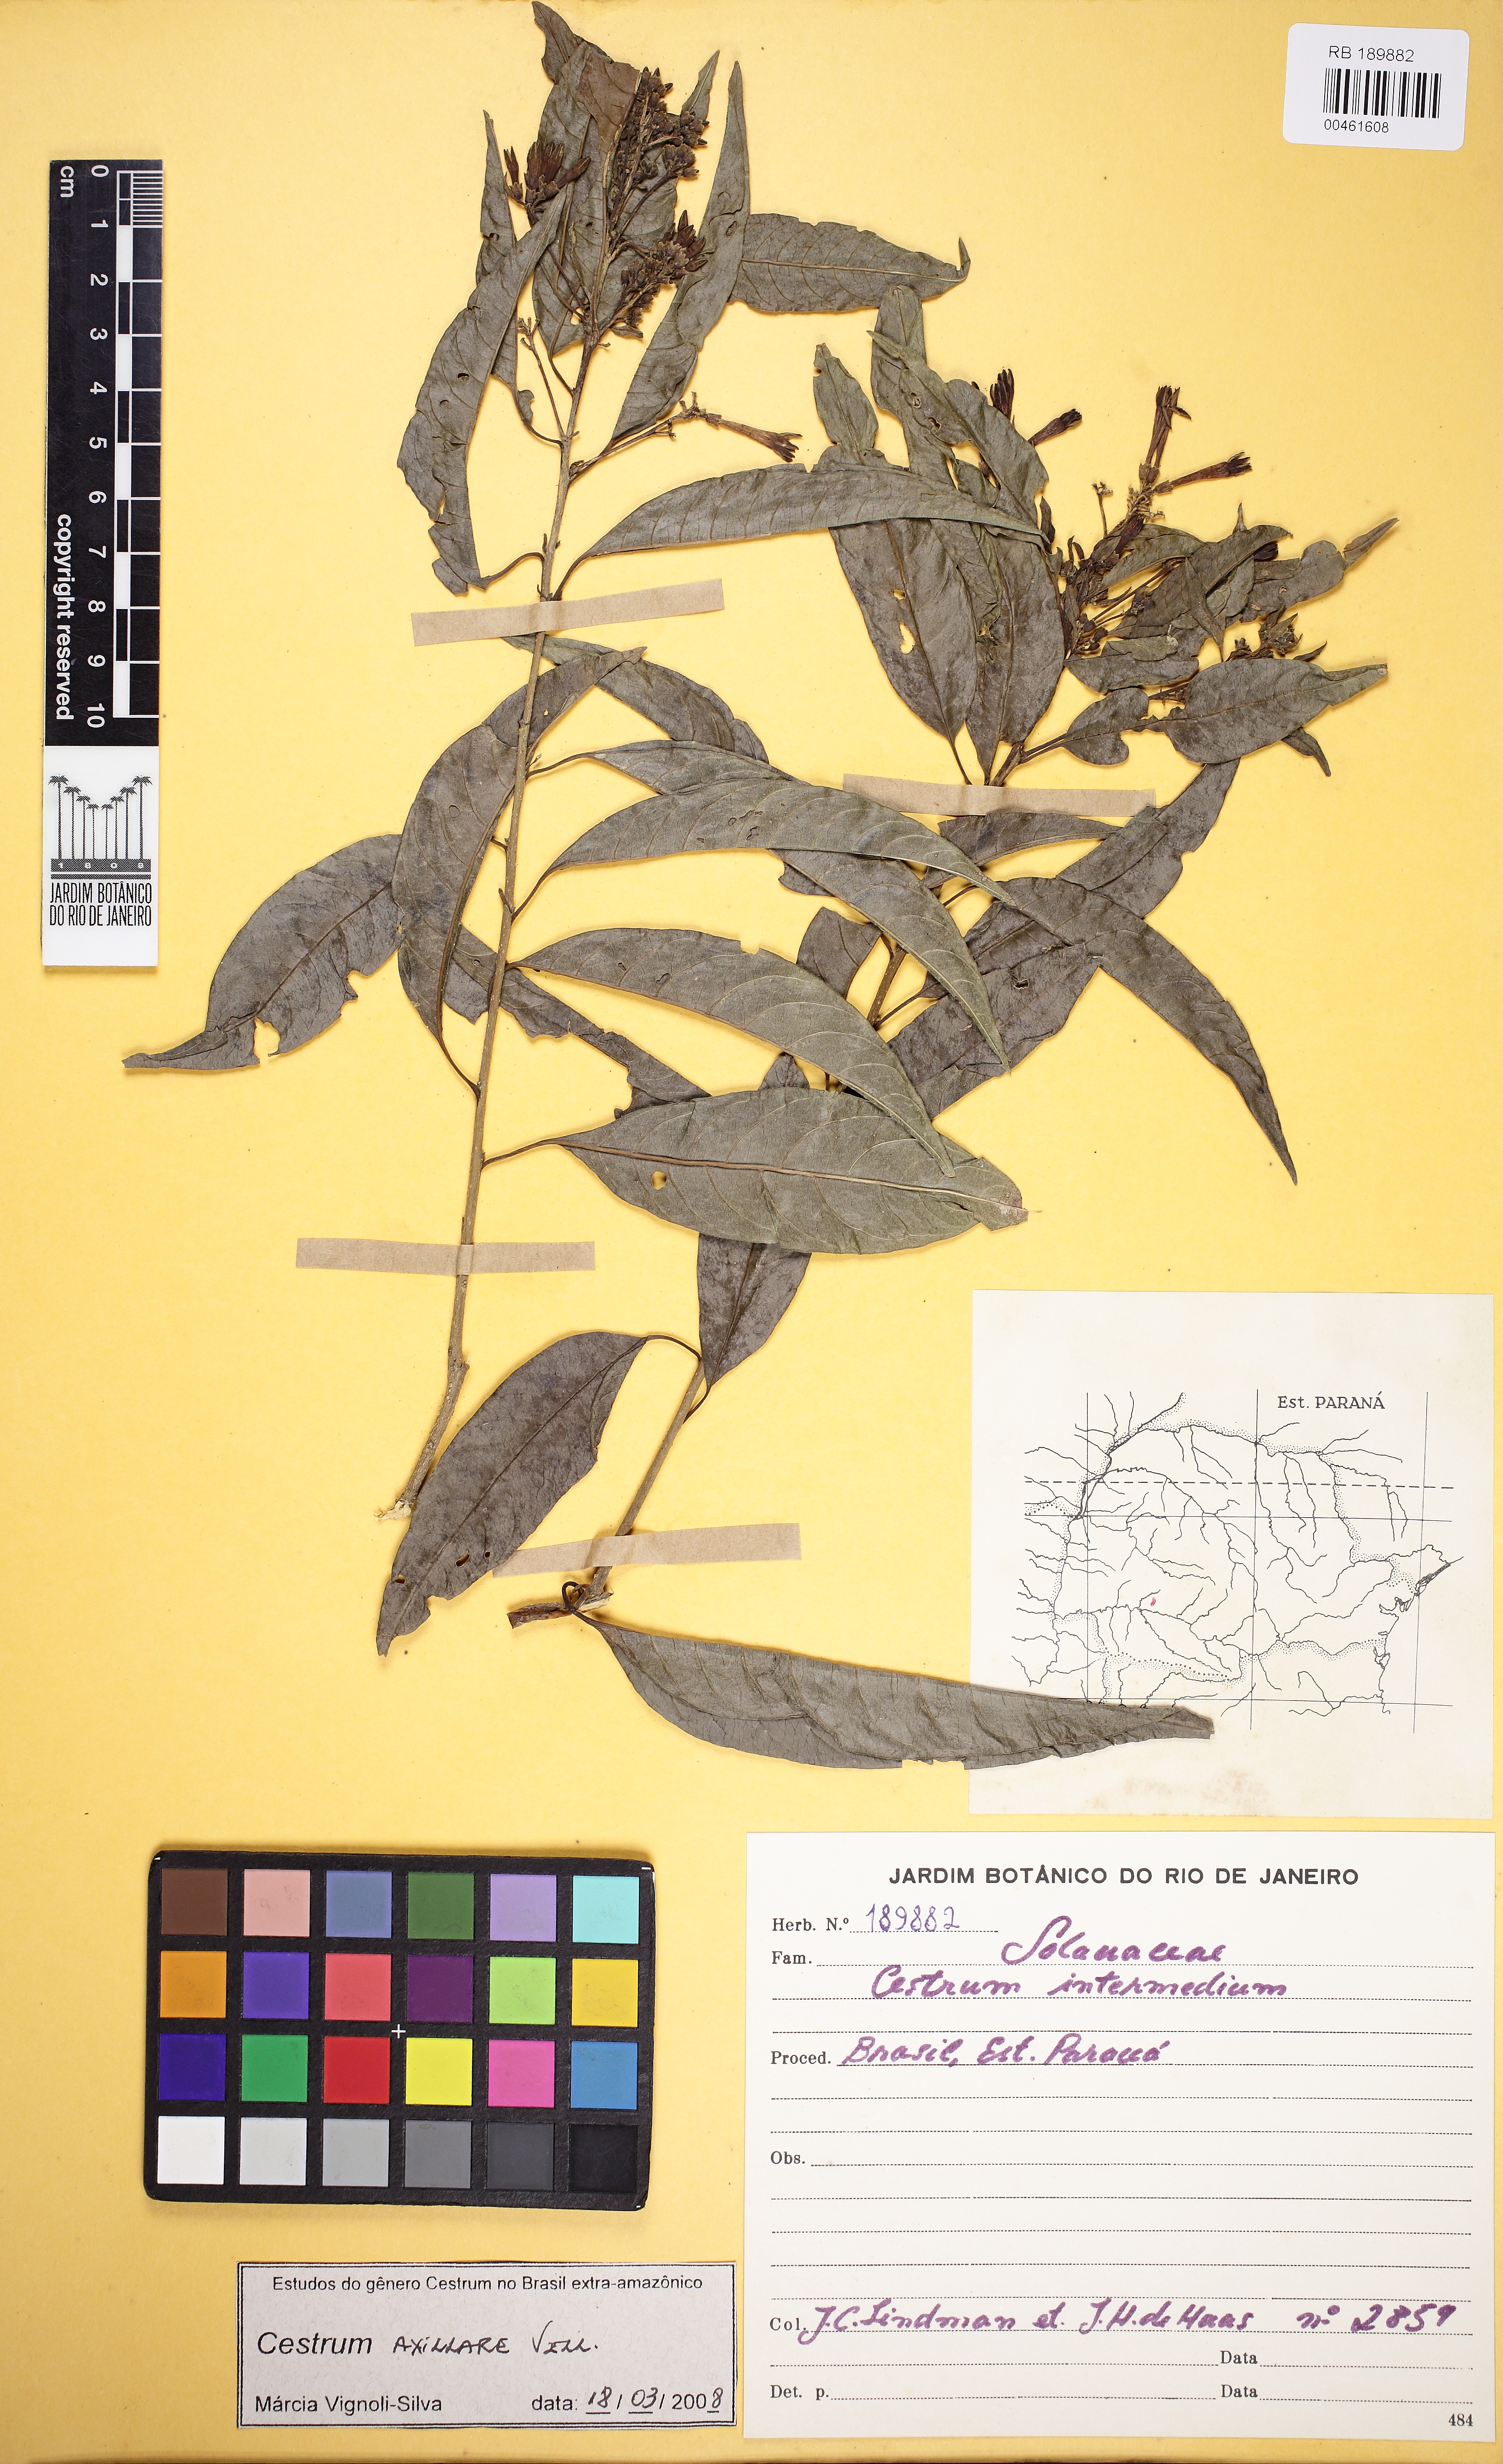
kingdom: Plantae
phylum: Tracheophyta
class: Magnoliopsida
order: Solanales
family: Solanaceae
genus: Cestrum
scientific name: Cestrum laevigatum
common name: Inkberry
